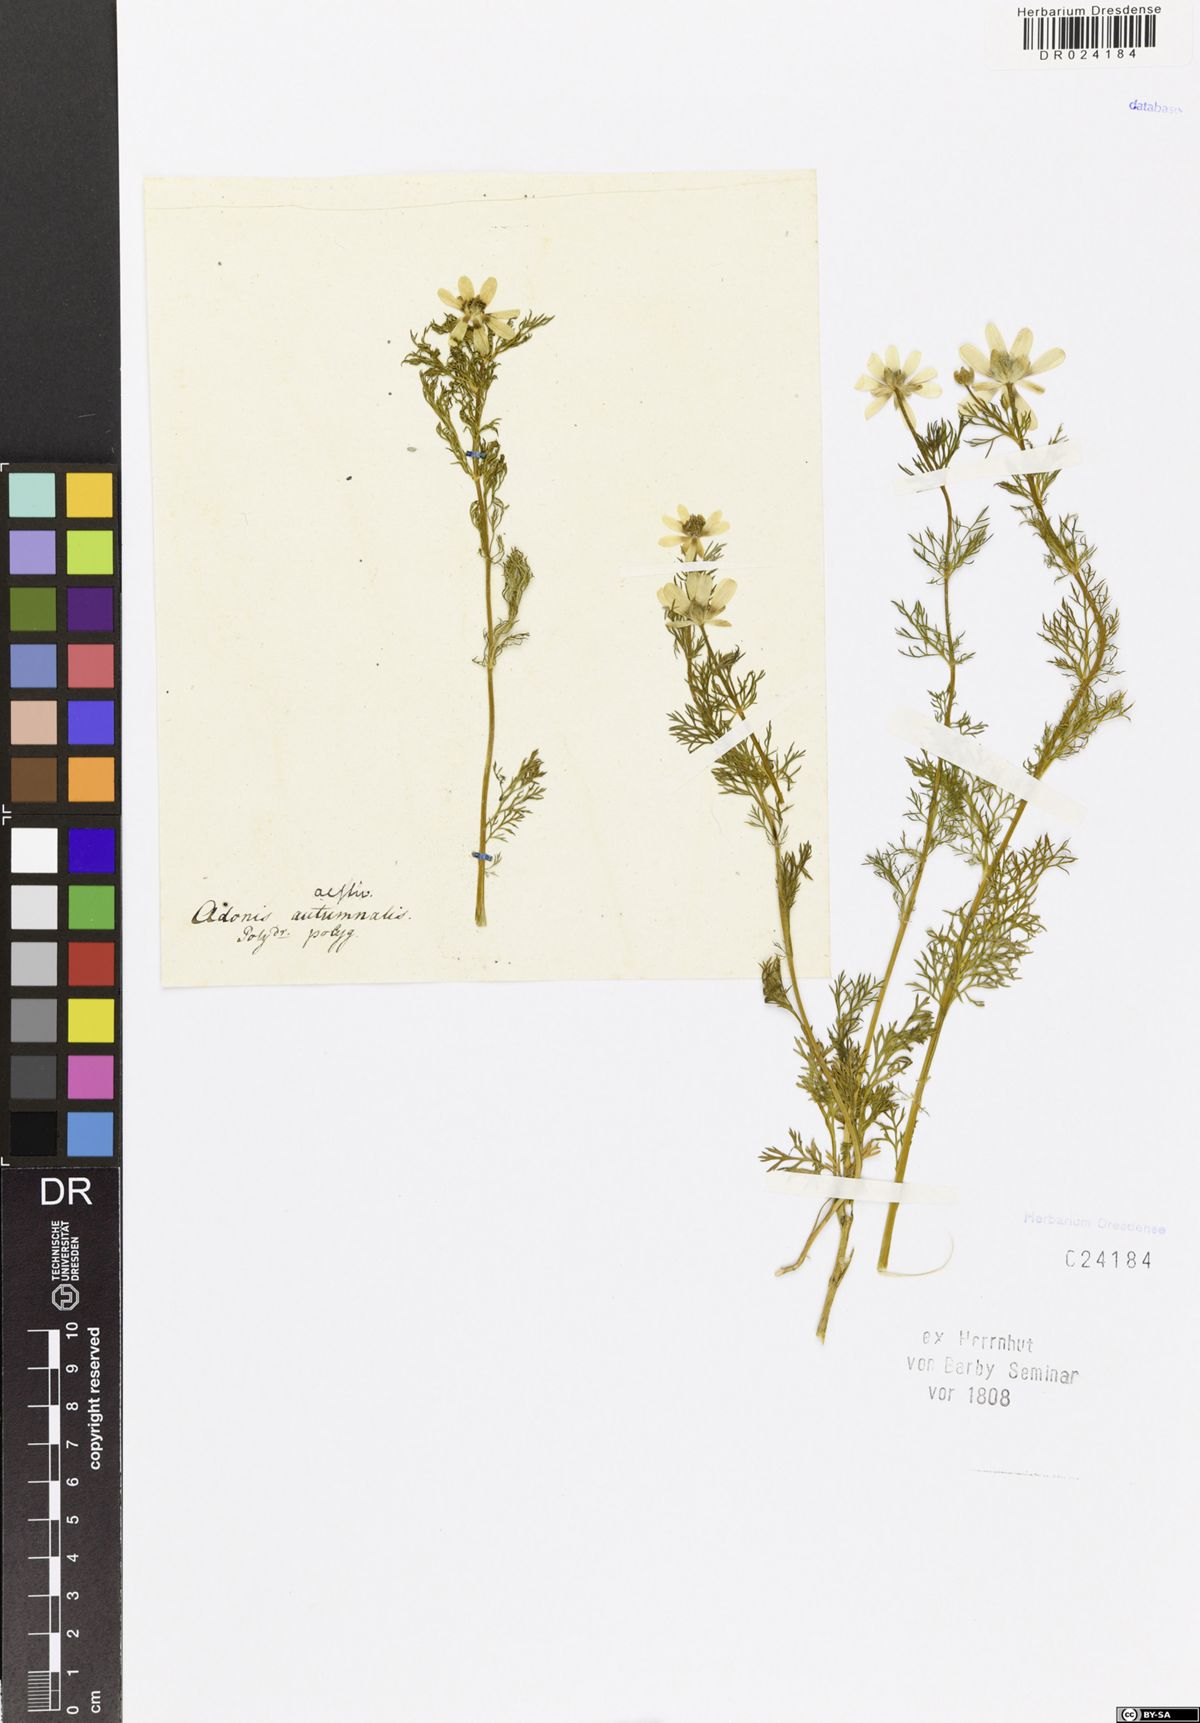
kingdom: Plantae
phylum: Tracheophyta
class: Magnoliopsida
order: Ranunculales
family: Ranunculaceae
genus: Adonis
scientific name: Adonis aestivalis
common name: Summer pheasant's-eye
